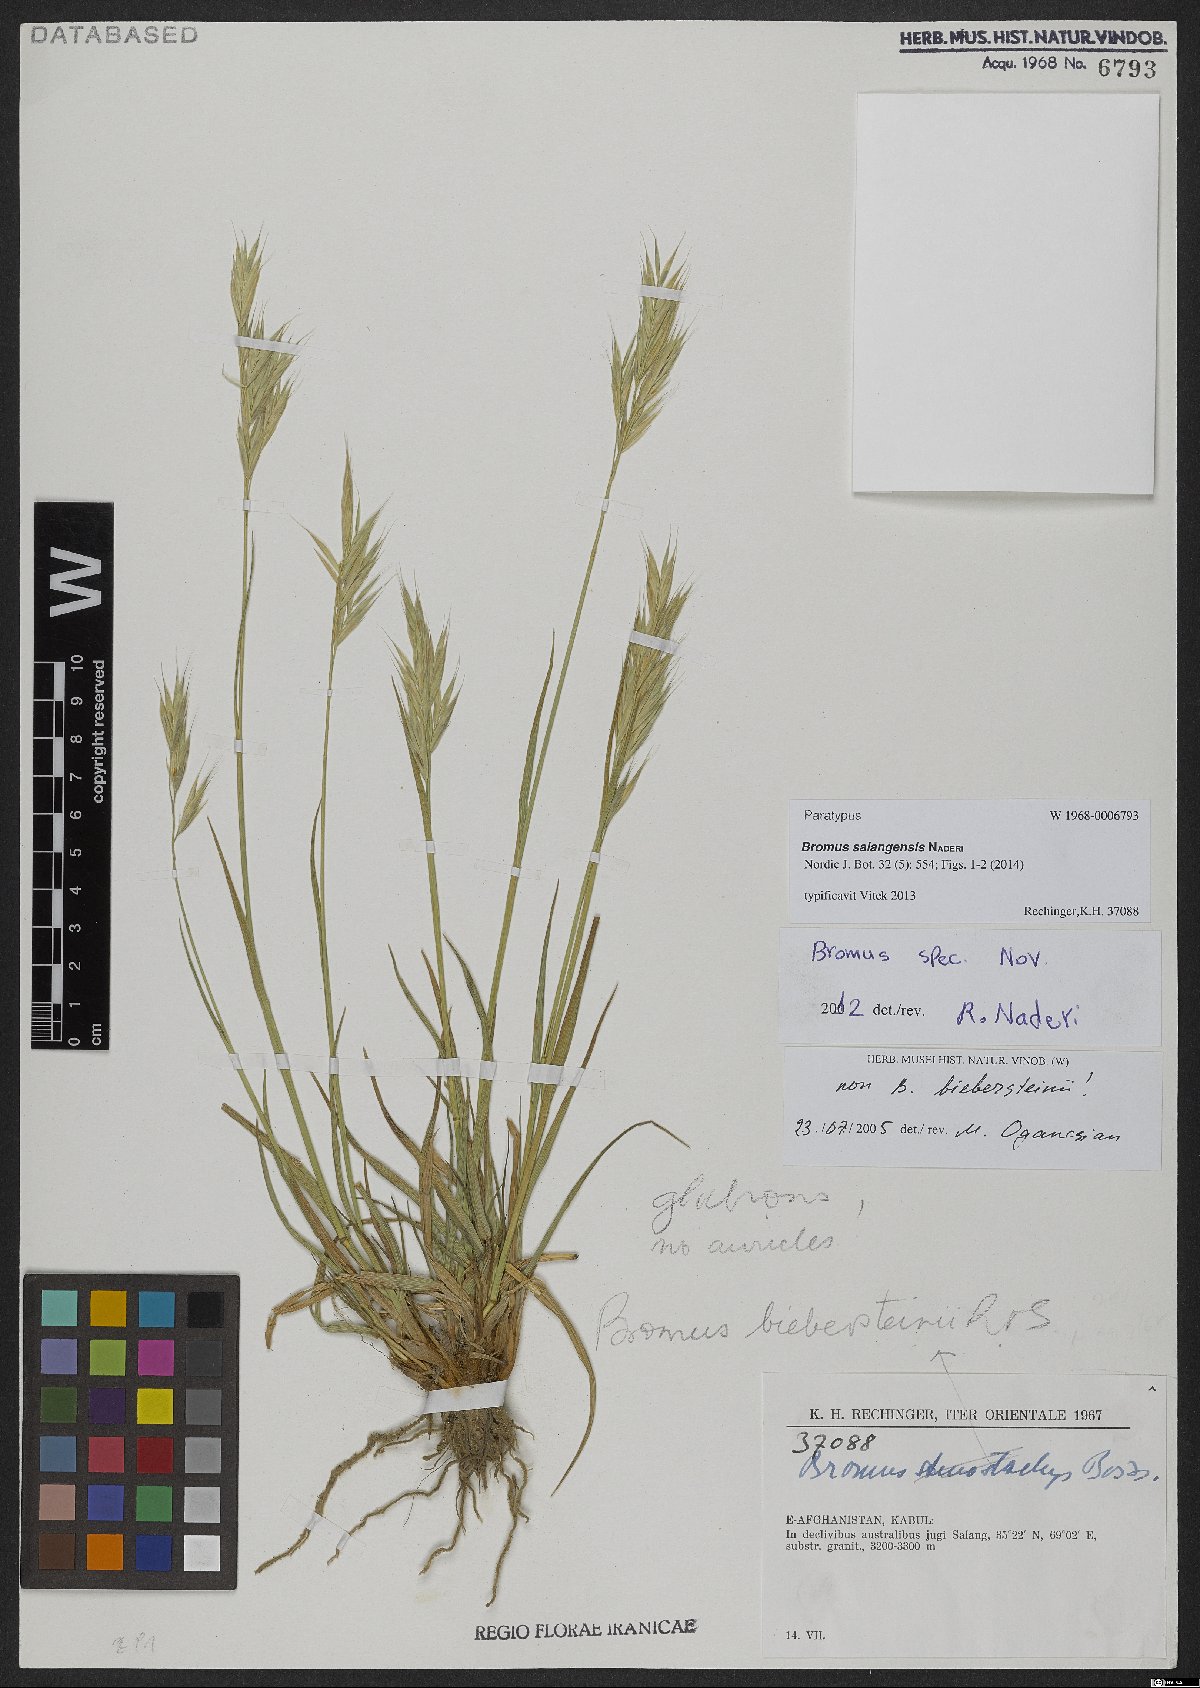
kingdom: Plantae
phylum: Tracheophyta
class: Liliopsida
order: Poales
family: Poaceae
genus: Bromus
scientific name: Bromus salangensis
